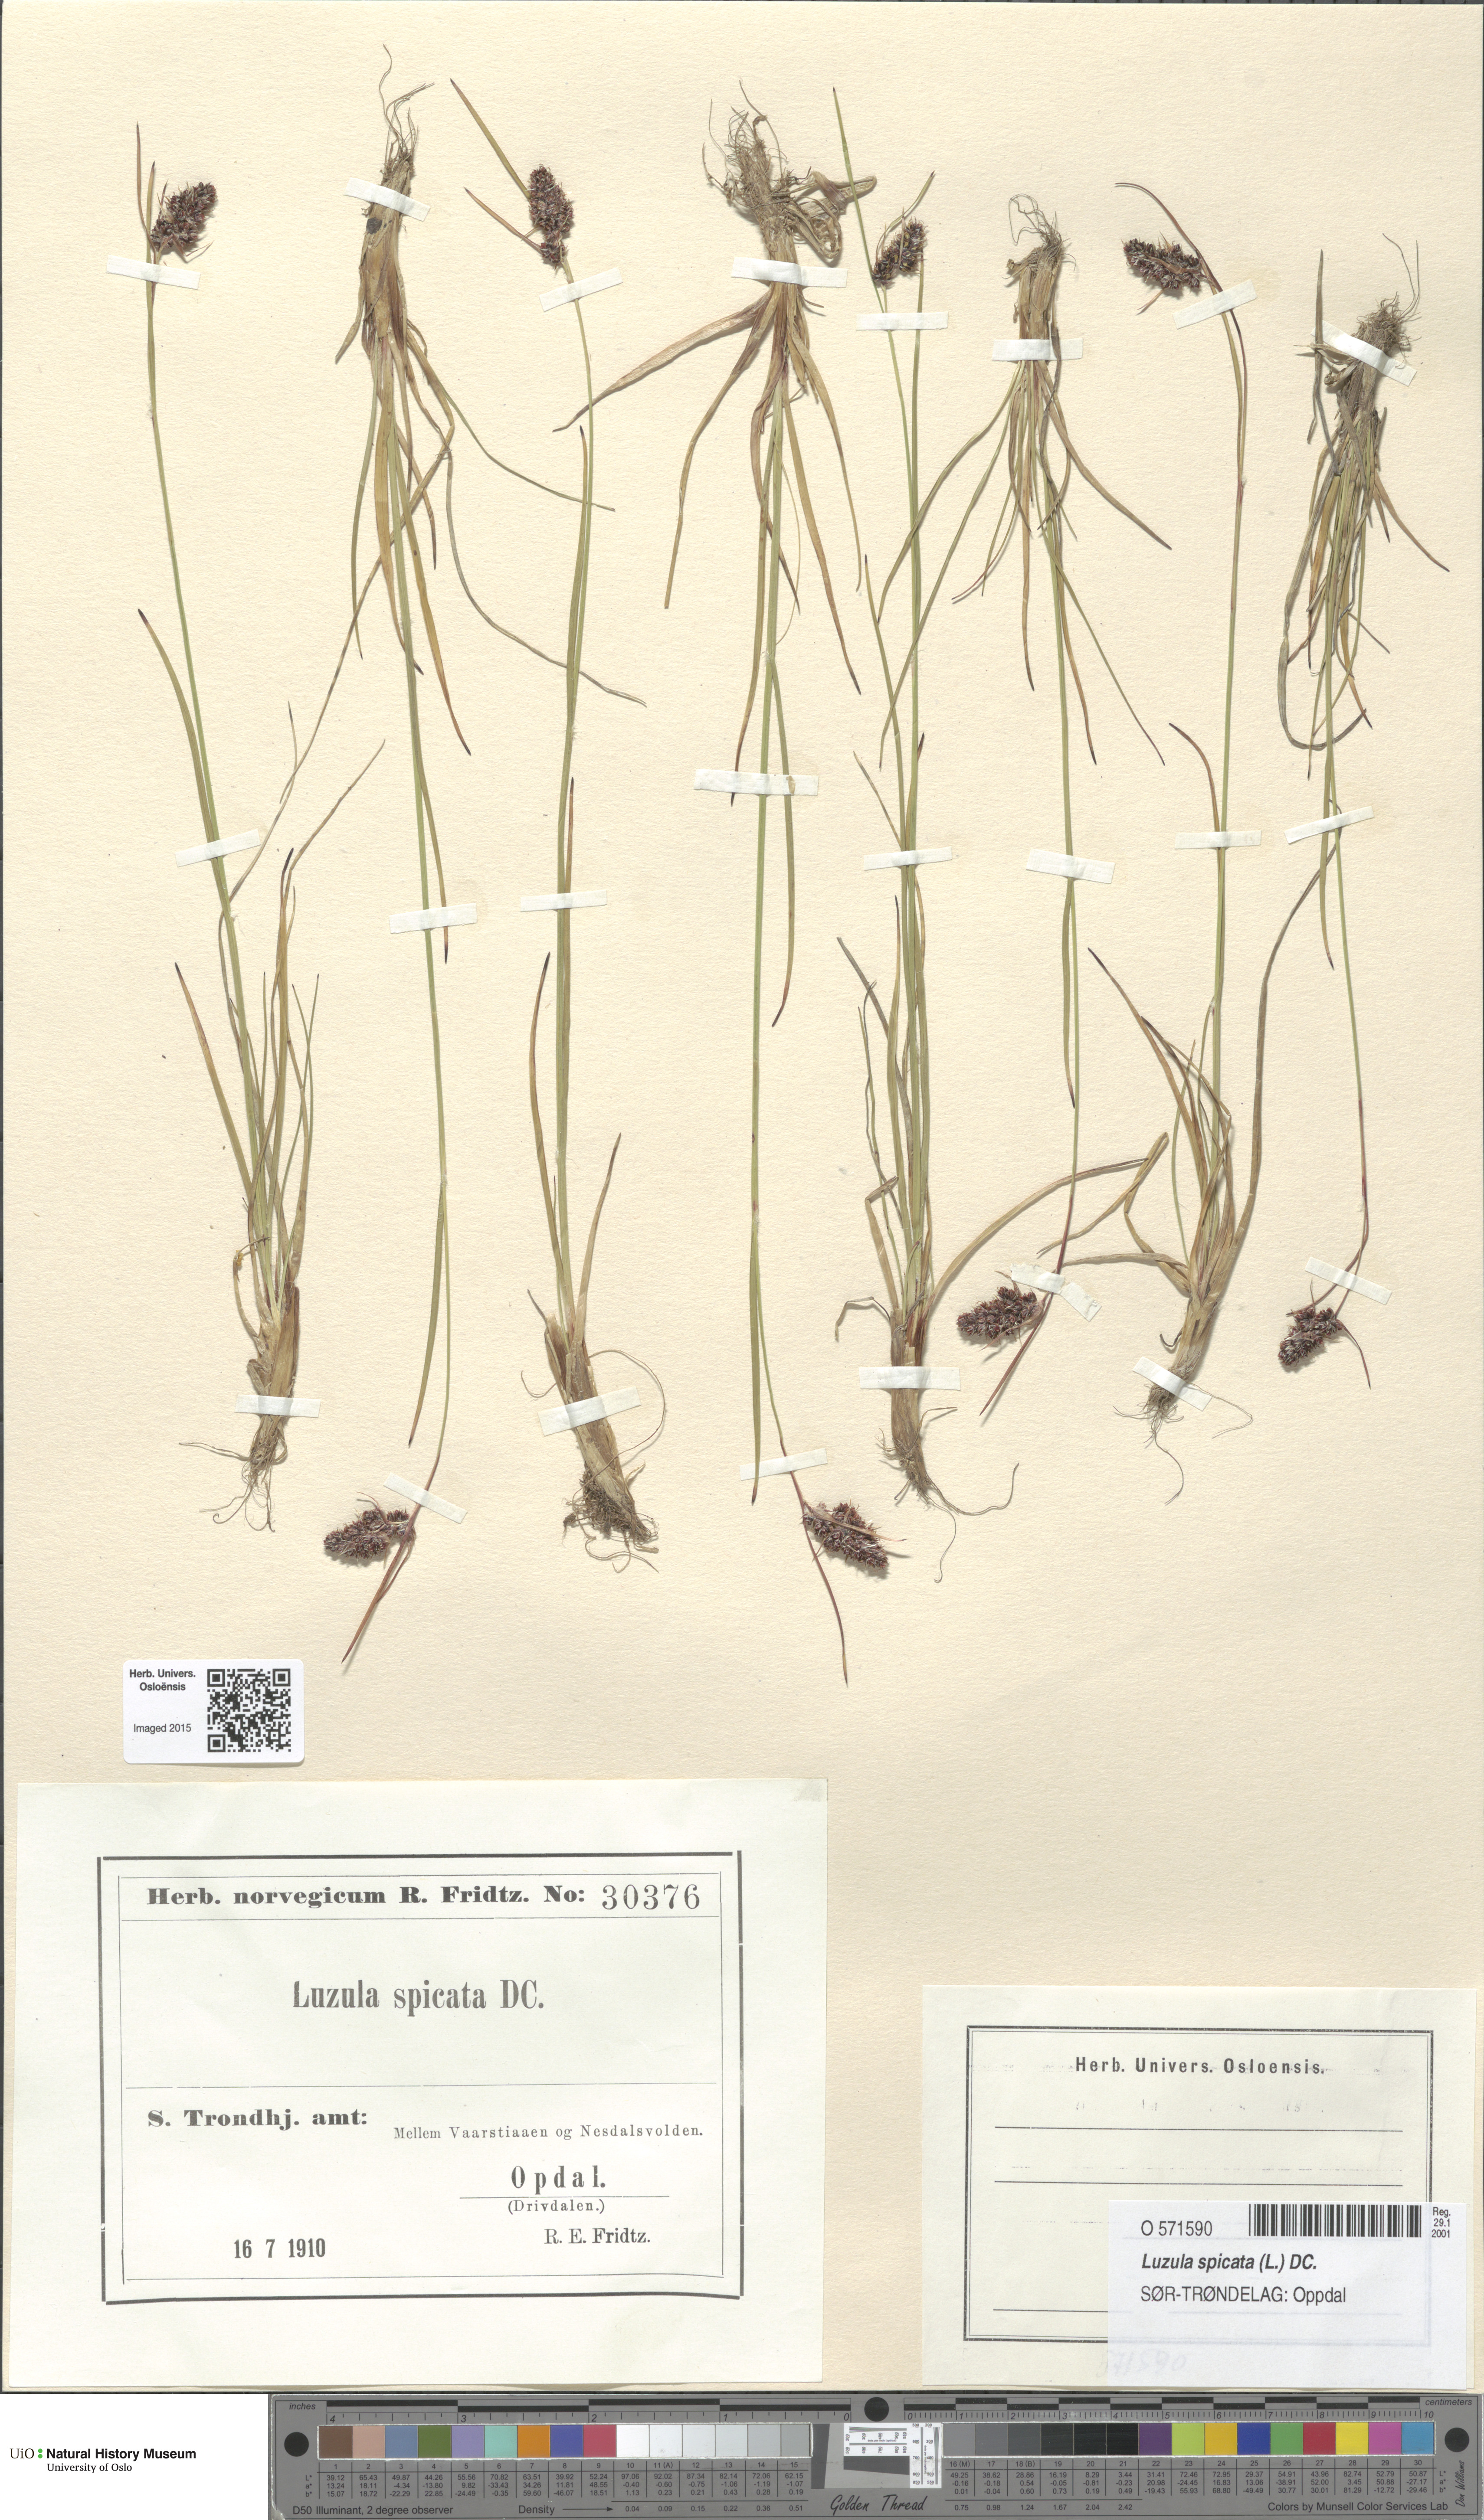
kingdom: Plantae
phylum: Tracheophyta
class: Liliopsida
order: Poales
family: Juncaceae
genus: Luzula
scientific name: Luzula spicata
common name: Spiked wood-rush
